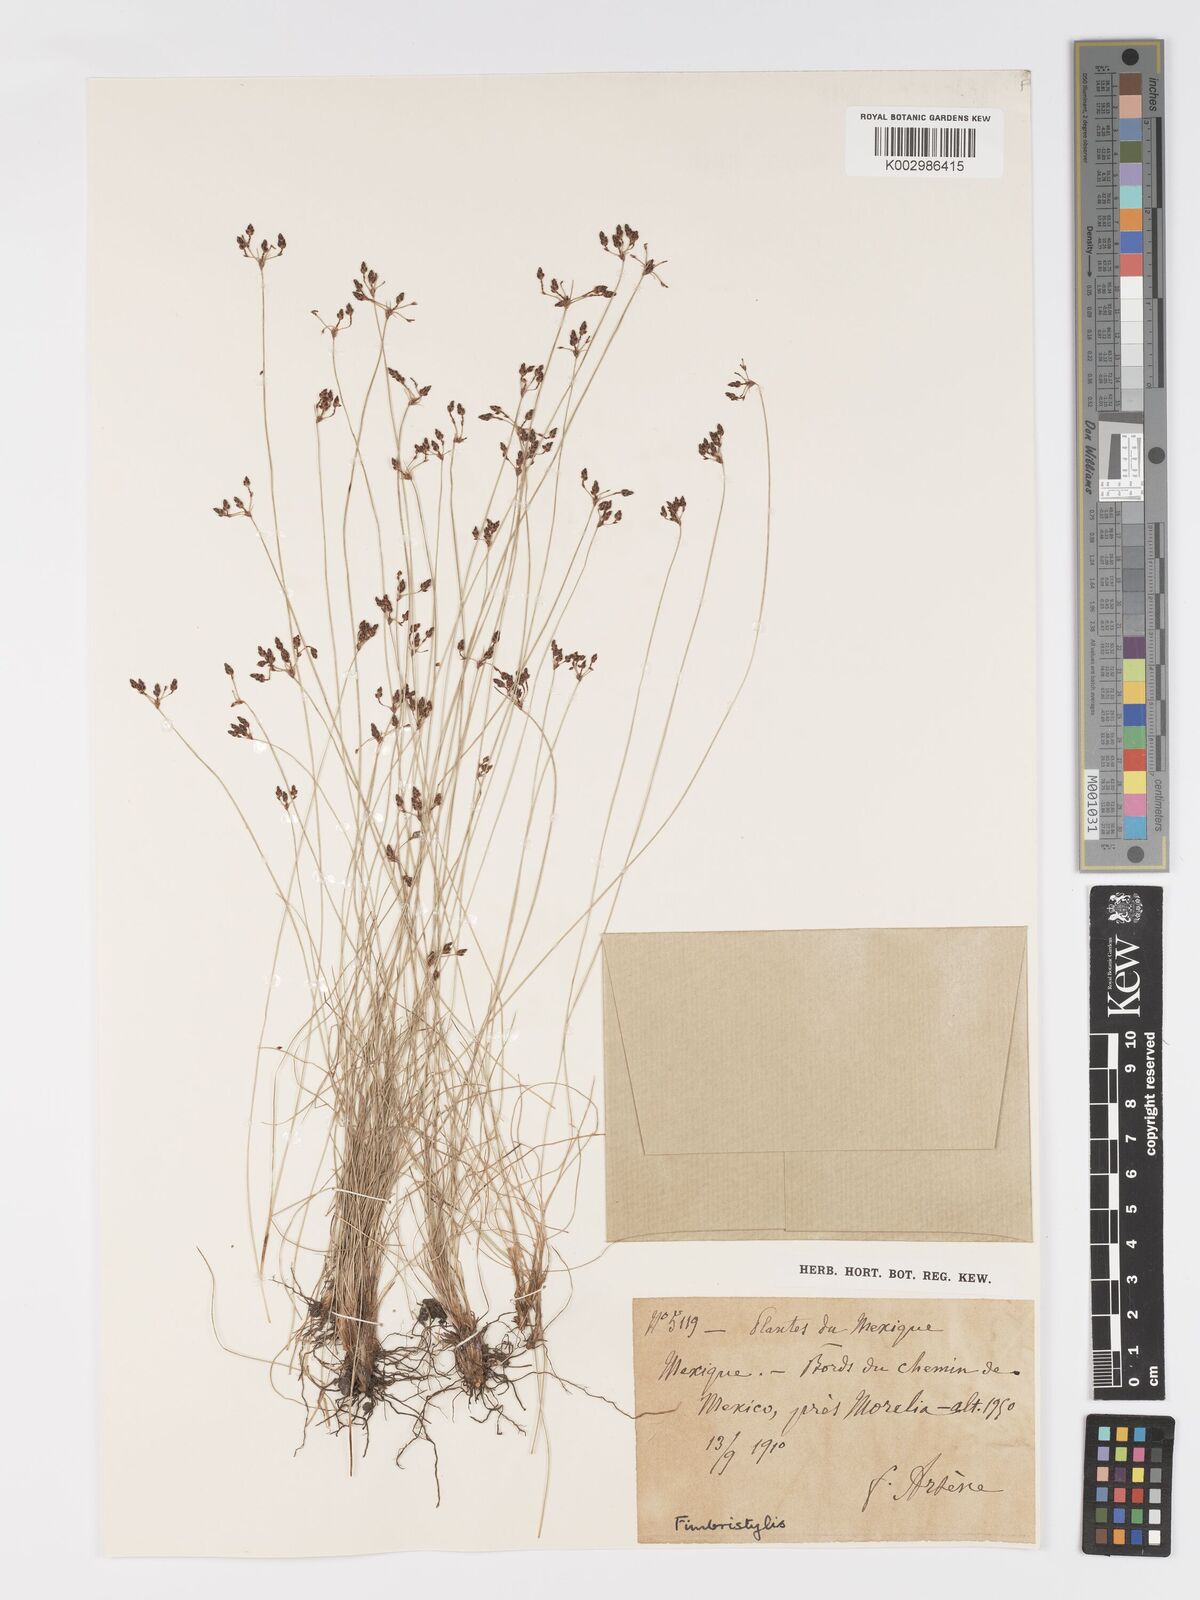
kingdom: Plantae
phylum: Tracheophyta
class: Liliopsida
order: Poales
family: Cyperaceae
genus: Fimbristylis
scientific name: Fimbristylis
